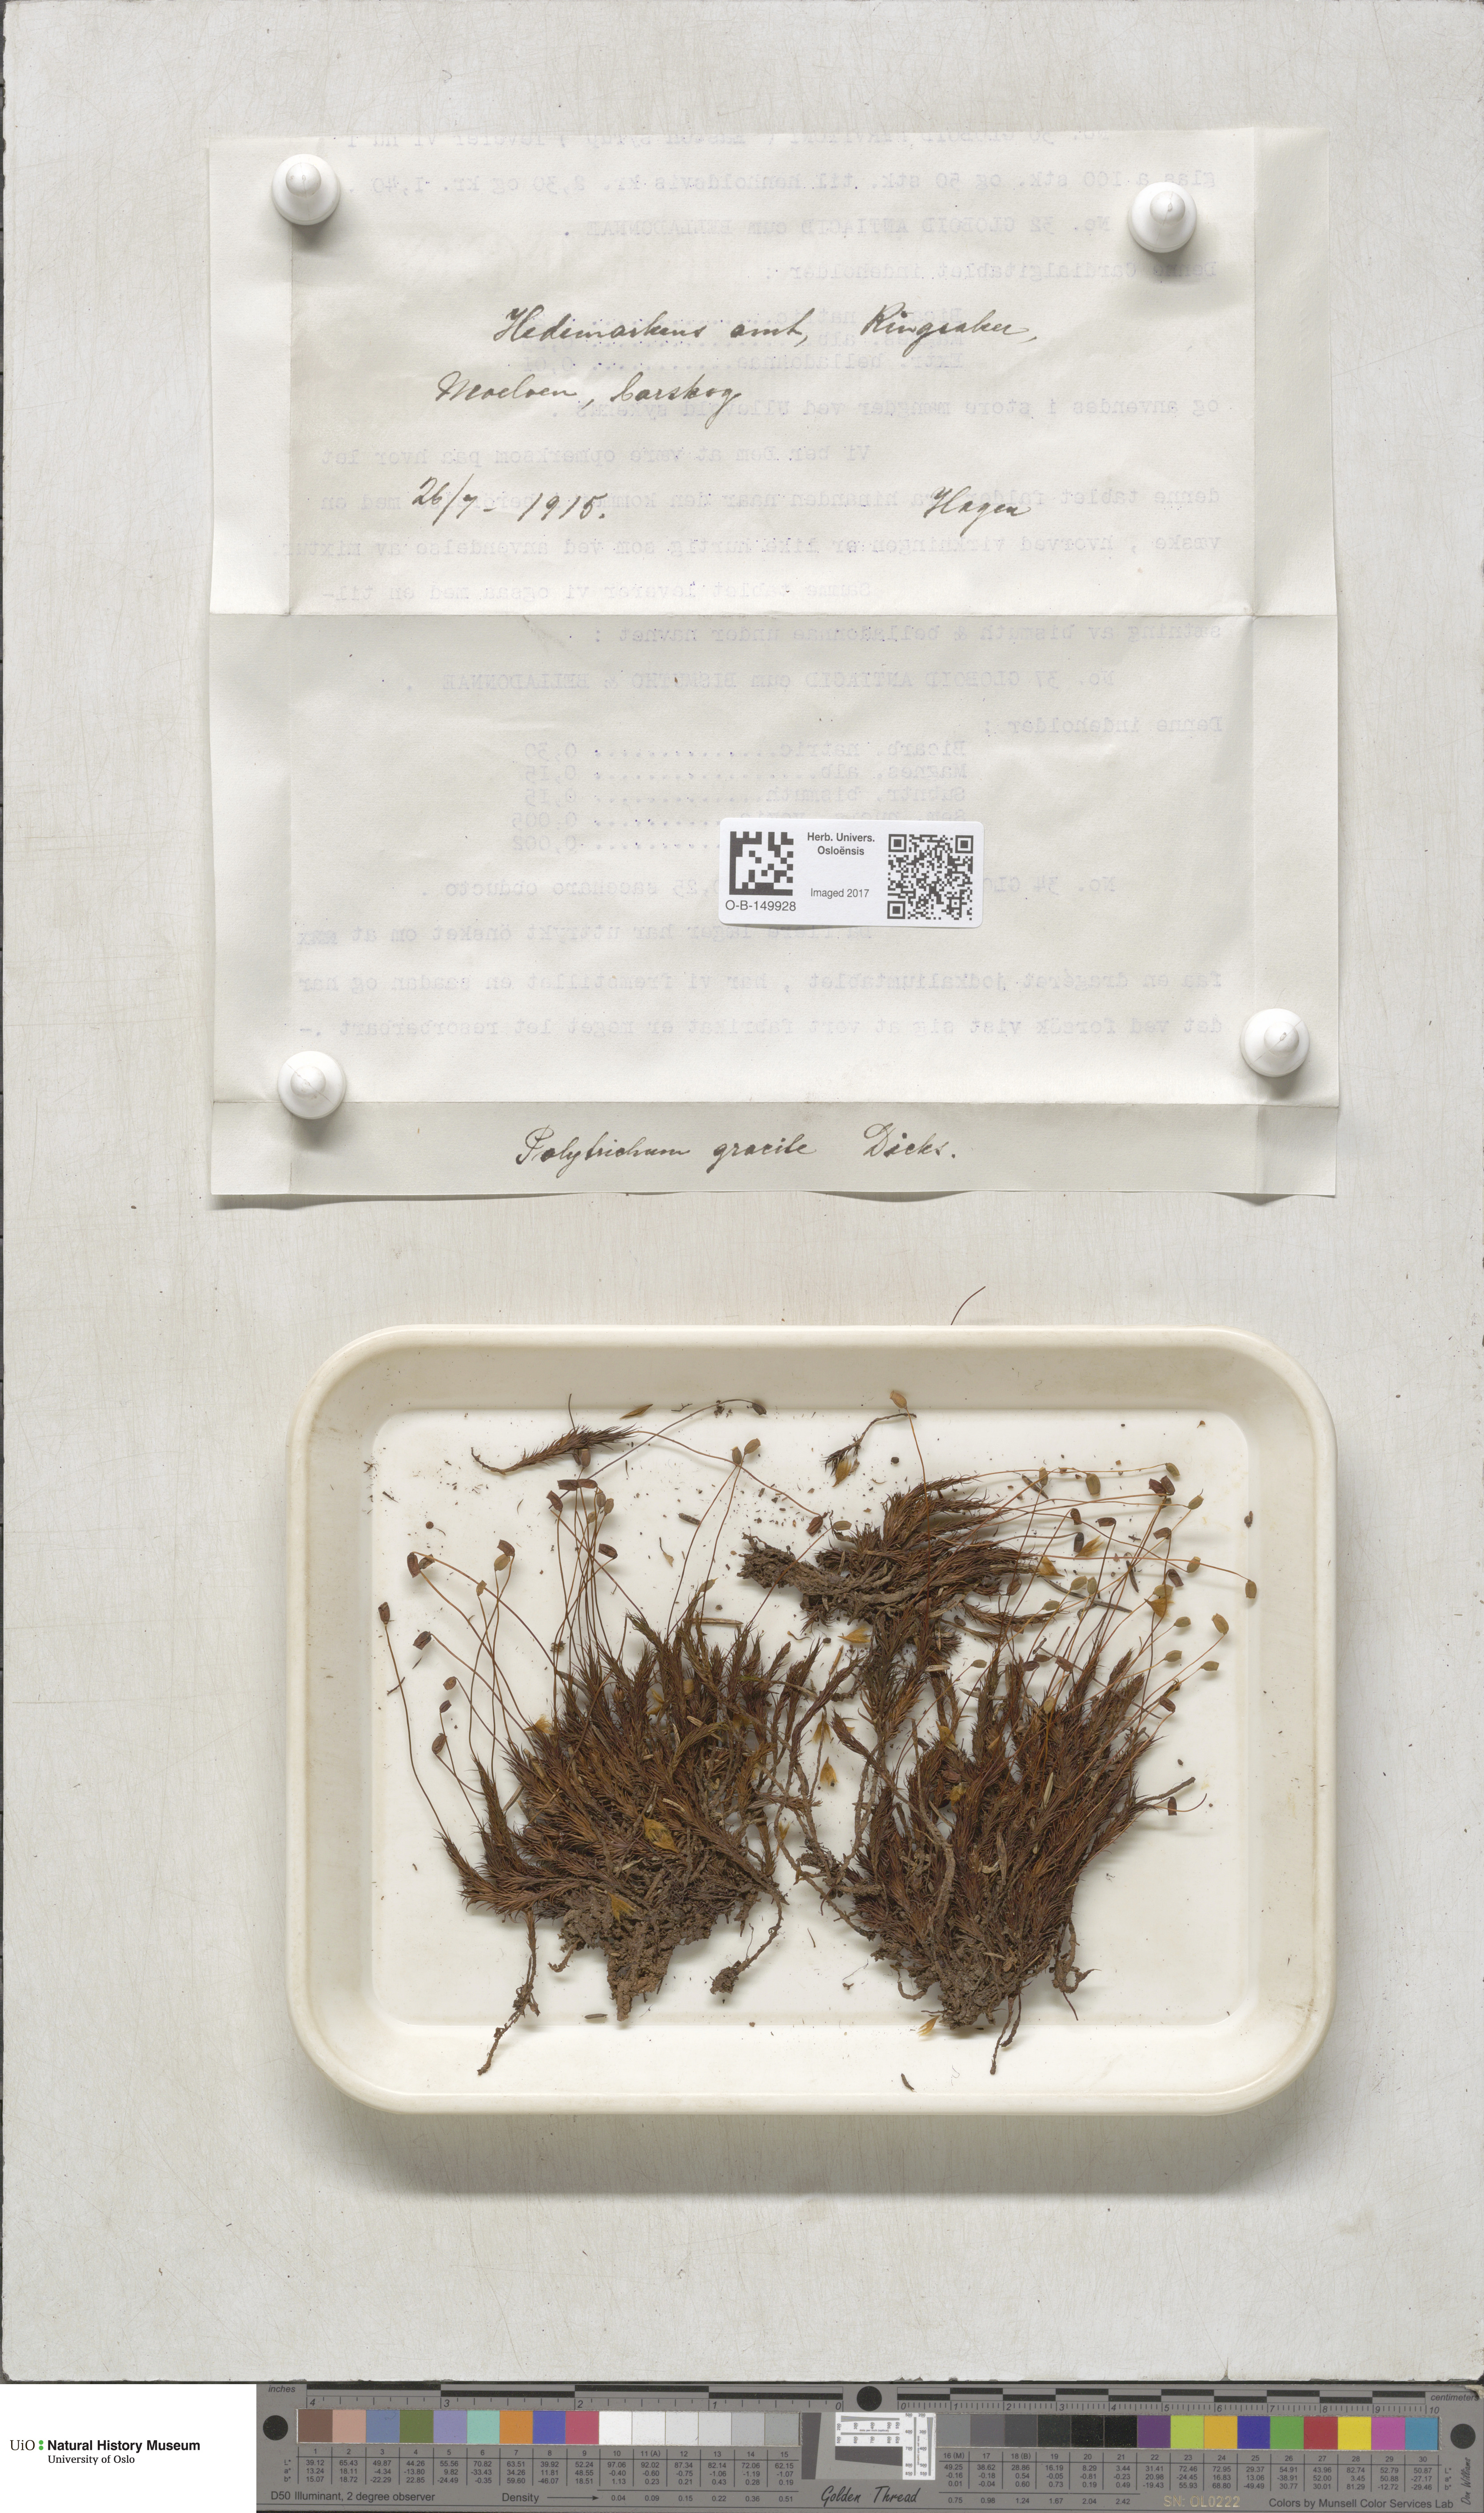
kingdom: Plantae
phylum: Bryophyta
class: Polytrichopsida
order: Polytrichales
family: Polytrichaceae
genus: Polytrichum
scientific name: Polytrichum longisetum
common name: Long-stalked haircap moss
